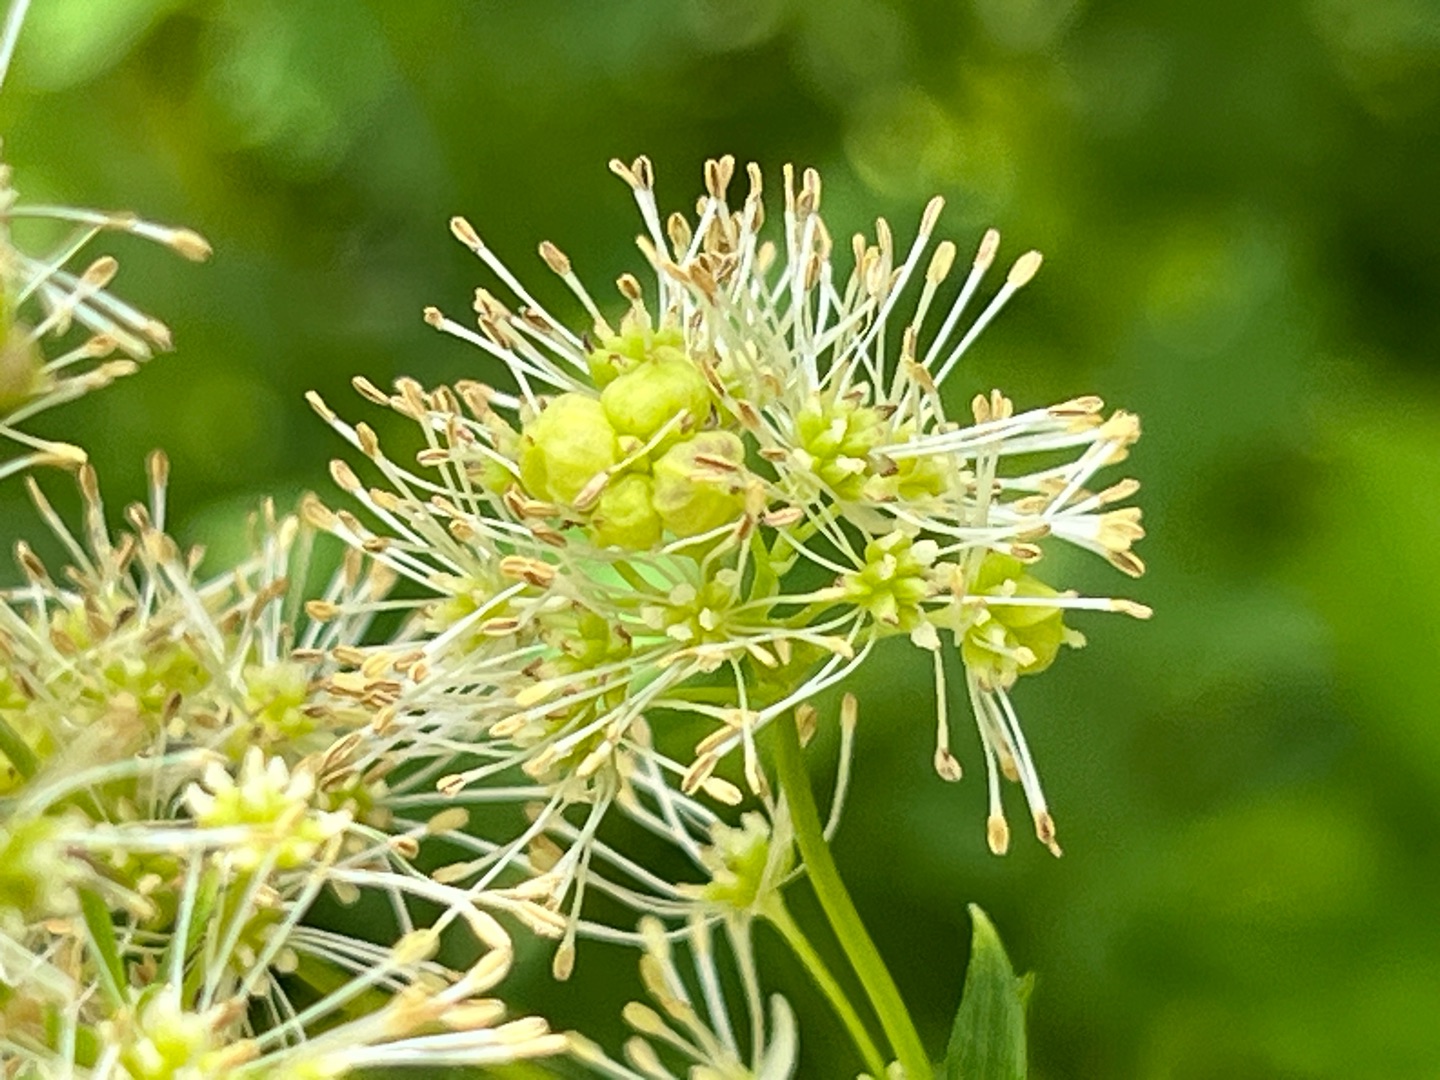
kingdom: Animalia
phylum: Arthropoda
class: Insecta
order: Diptera
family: Cecidomyiidae
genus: Ametrodiplosis
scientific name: Ametrodiplosis thalictricola
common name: Frøstjernegalmyg
